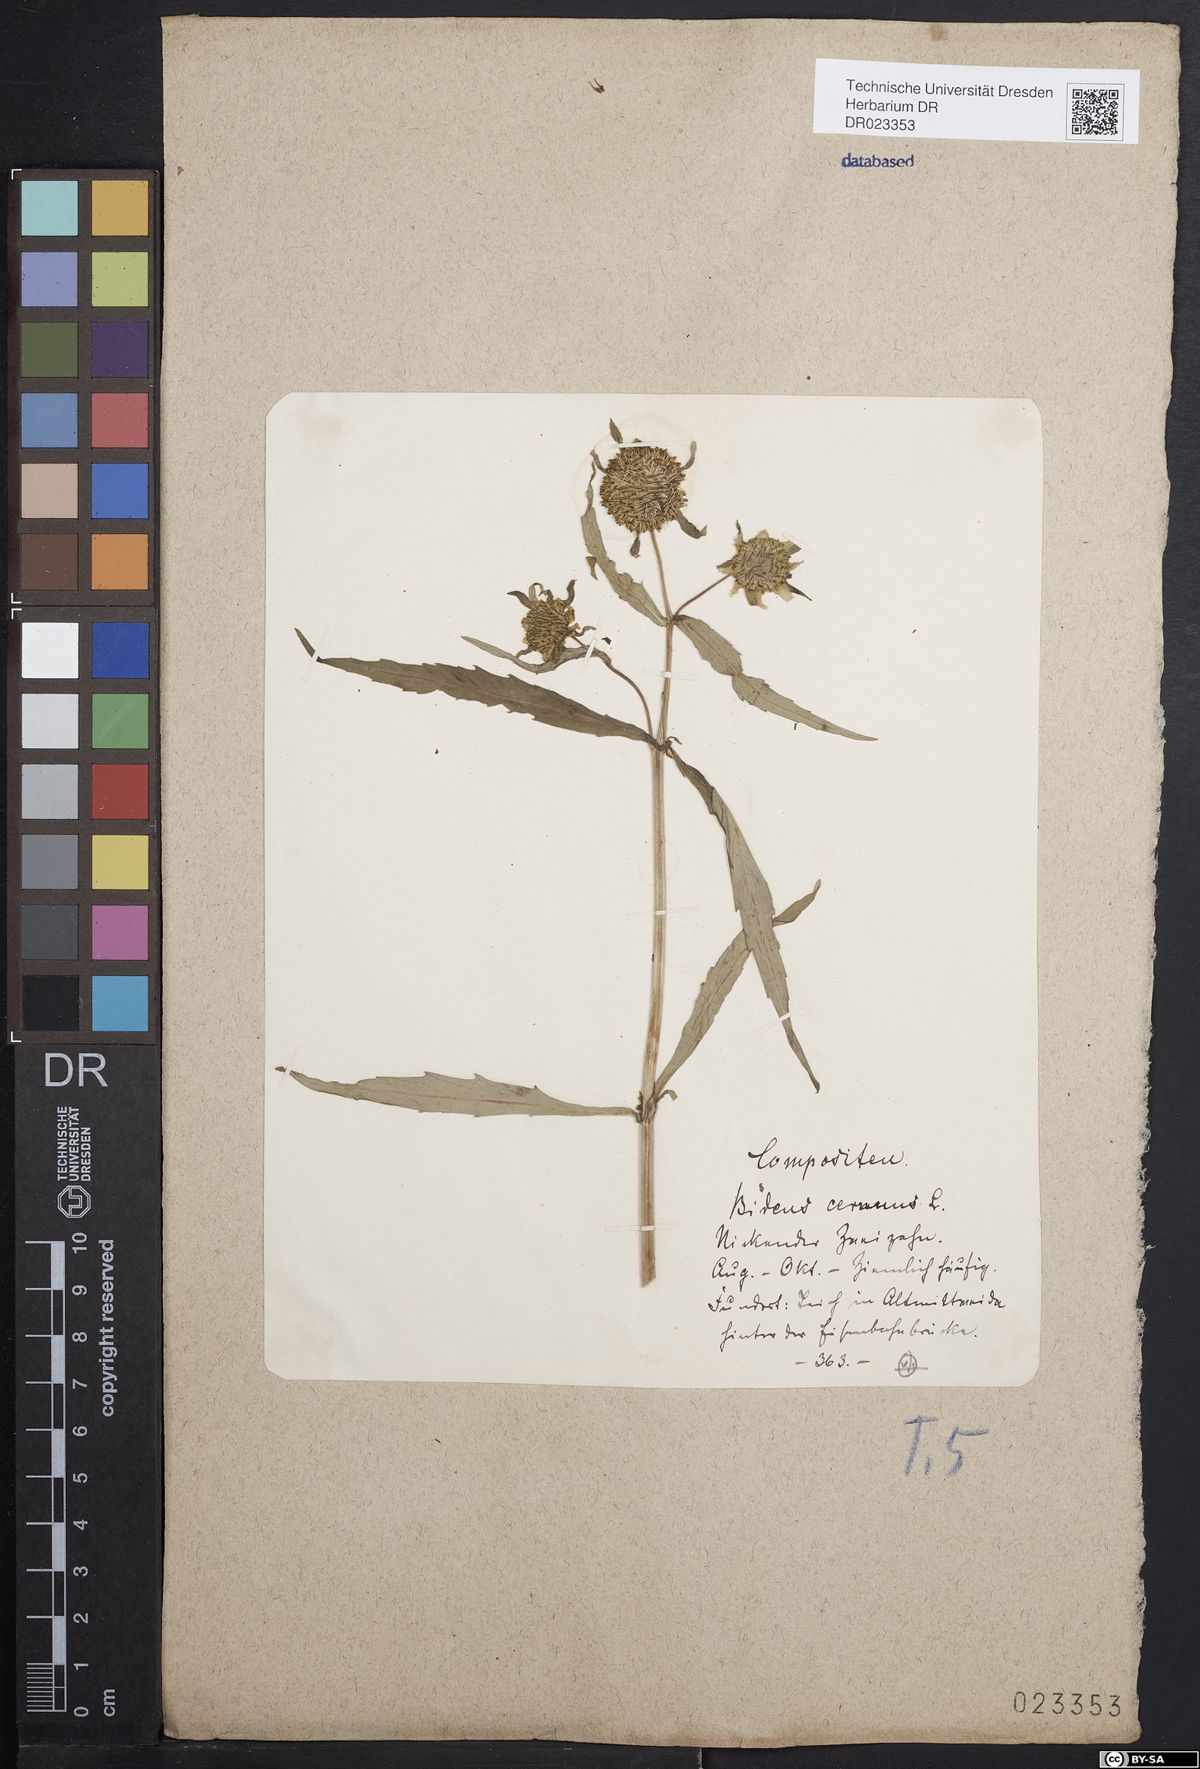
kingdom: Plantae
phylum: Tracheophyta
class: Magnoliopsida
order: Asterales
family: Asteraceae
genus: Bidens
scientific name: Bidens cernua
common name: Nodding bur-marigold
